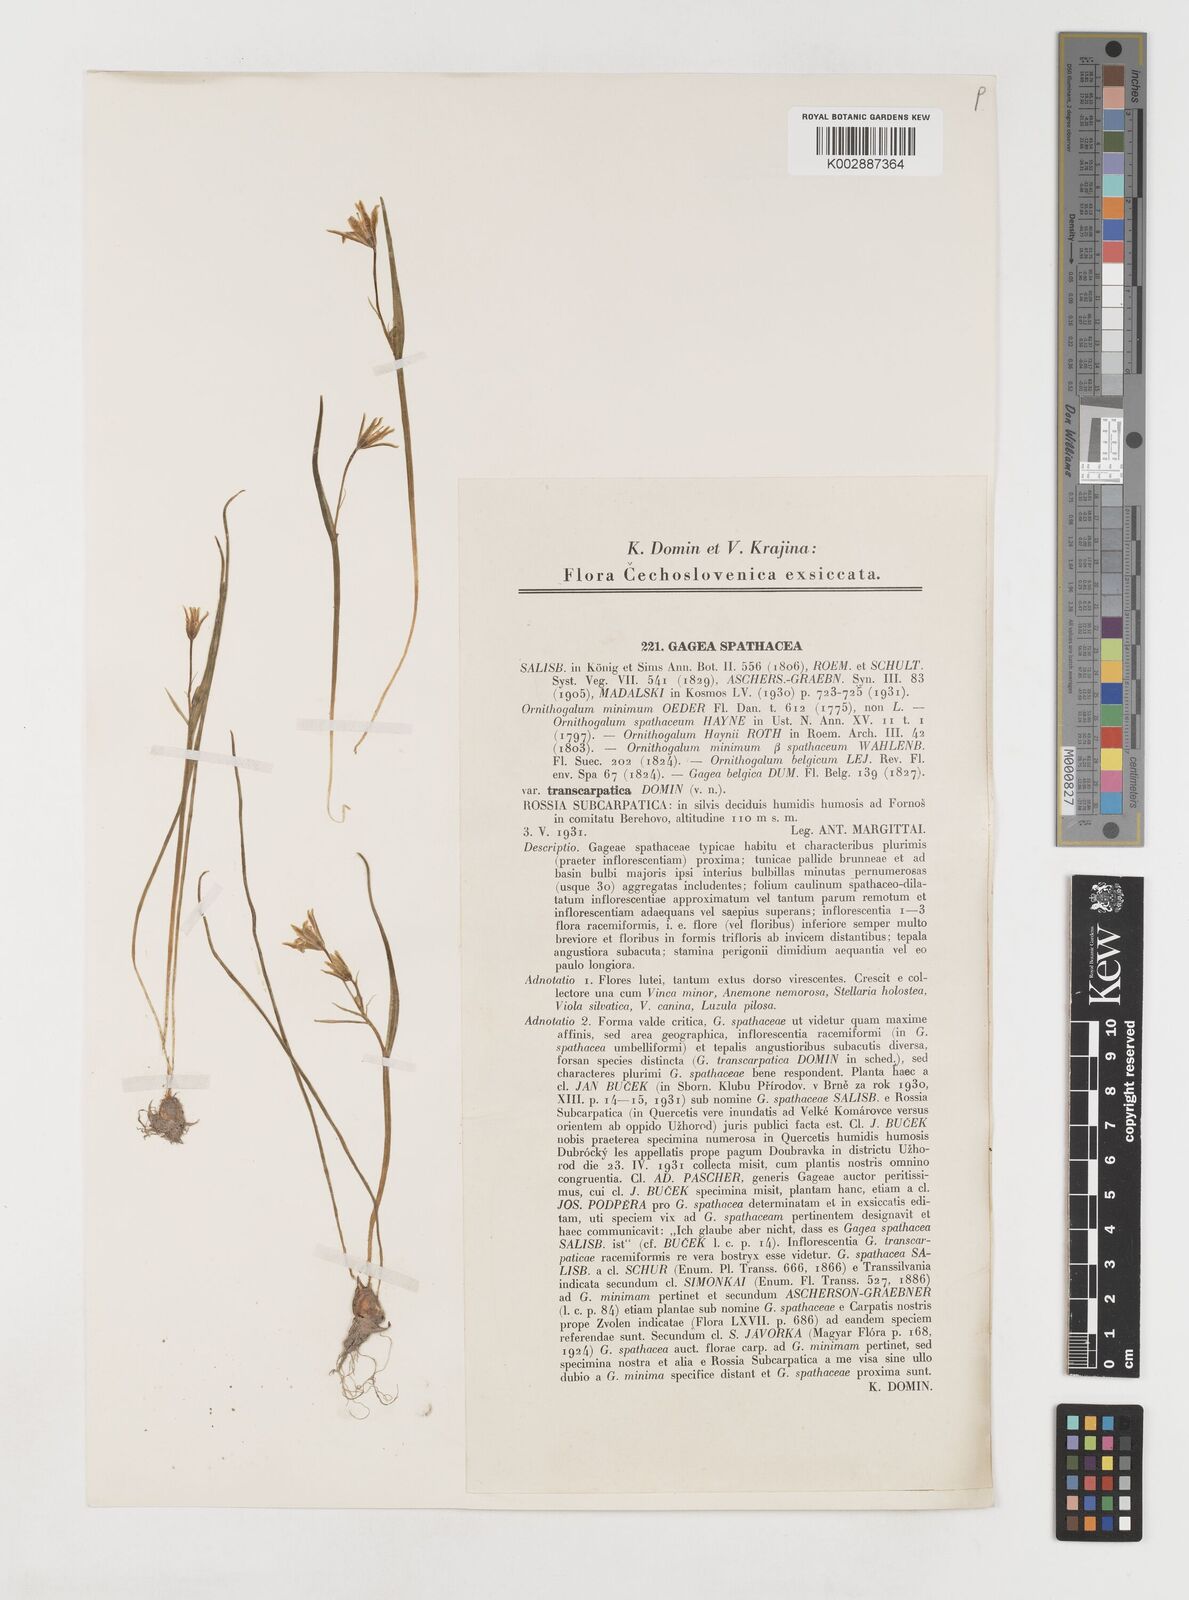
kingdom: Plantae
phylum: Tracheophyta
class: Liliopsida
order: Liliales
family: Liliaceae
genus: Gagea
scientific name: Gagea spathacea
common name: Belgian gagea
